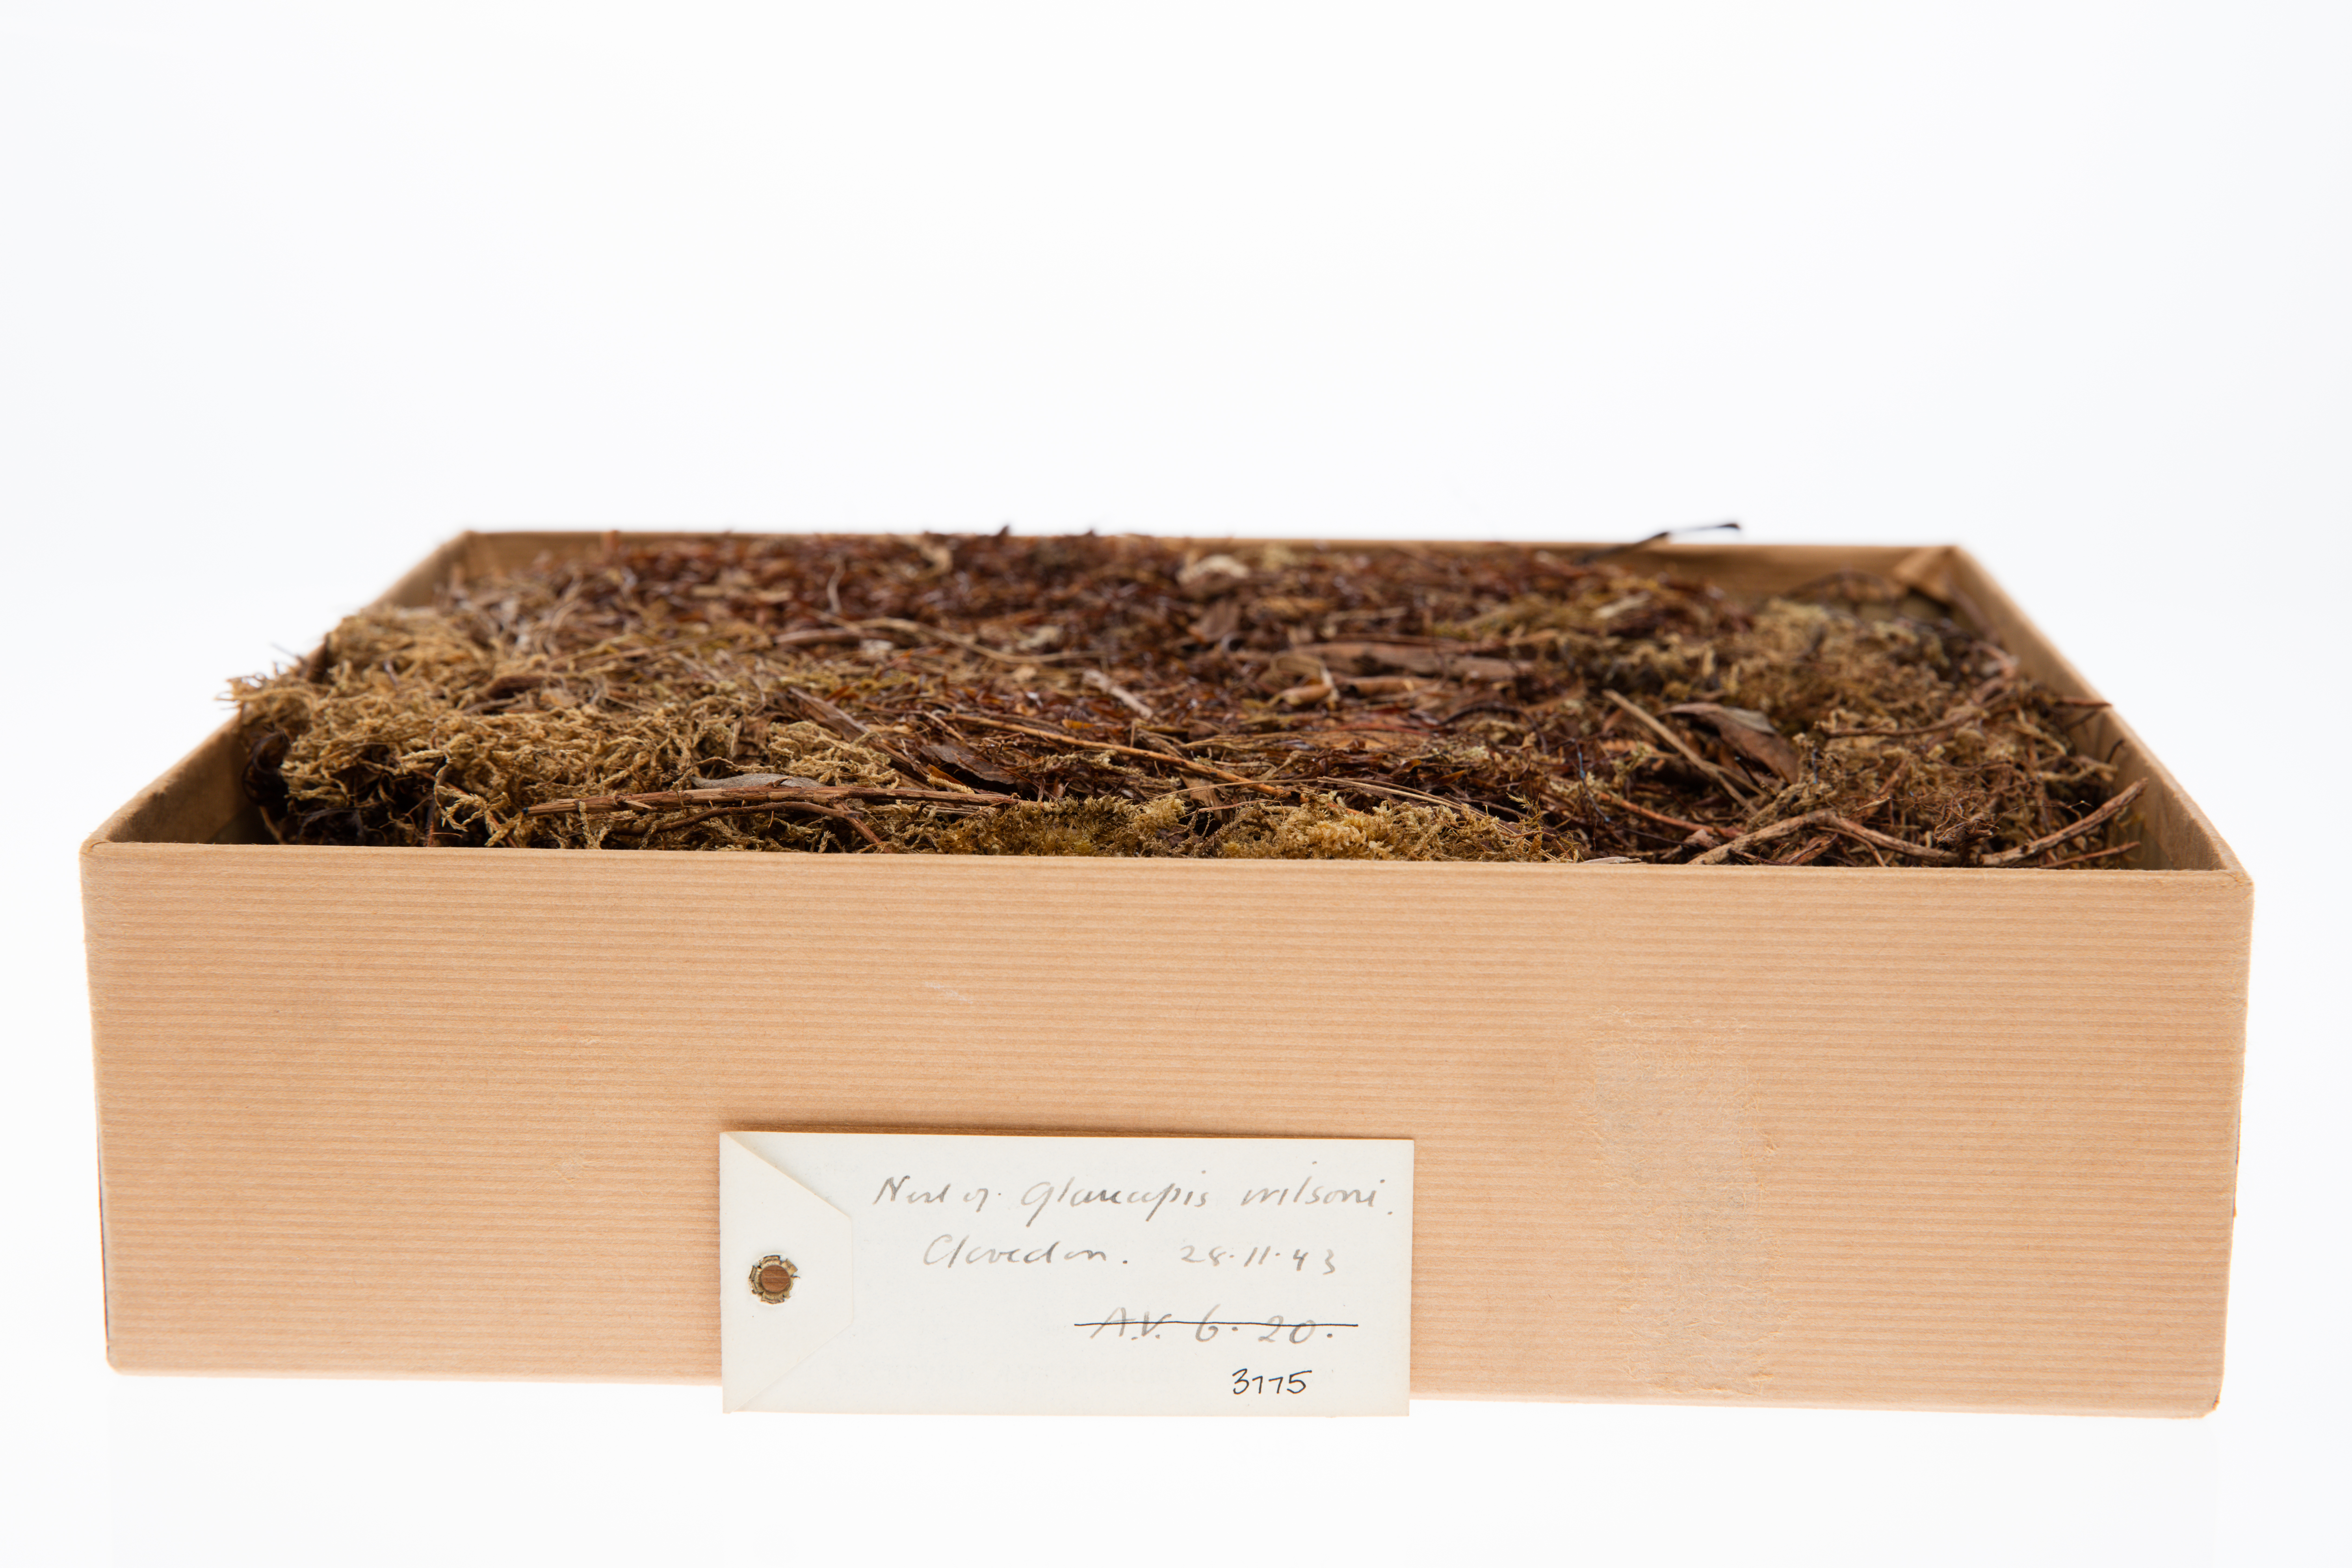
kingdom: Animalia
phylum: Chordata
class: Aves
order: Passeriformes
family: Callaeatidae
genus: Callaeas
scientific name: Callaeas cinereus
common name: South island kokako
